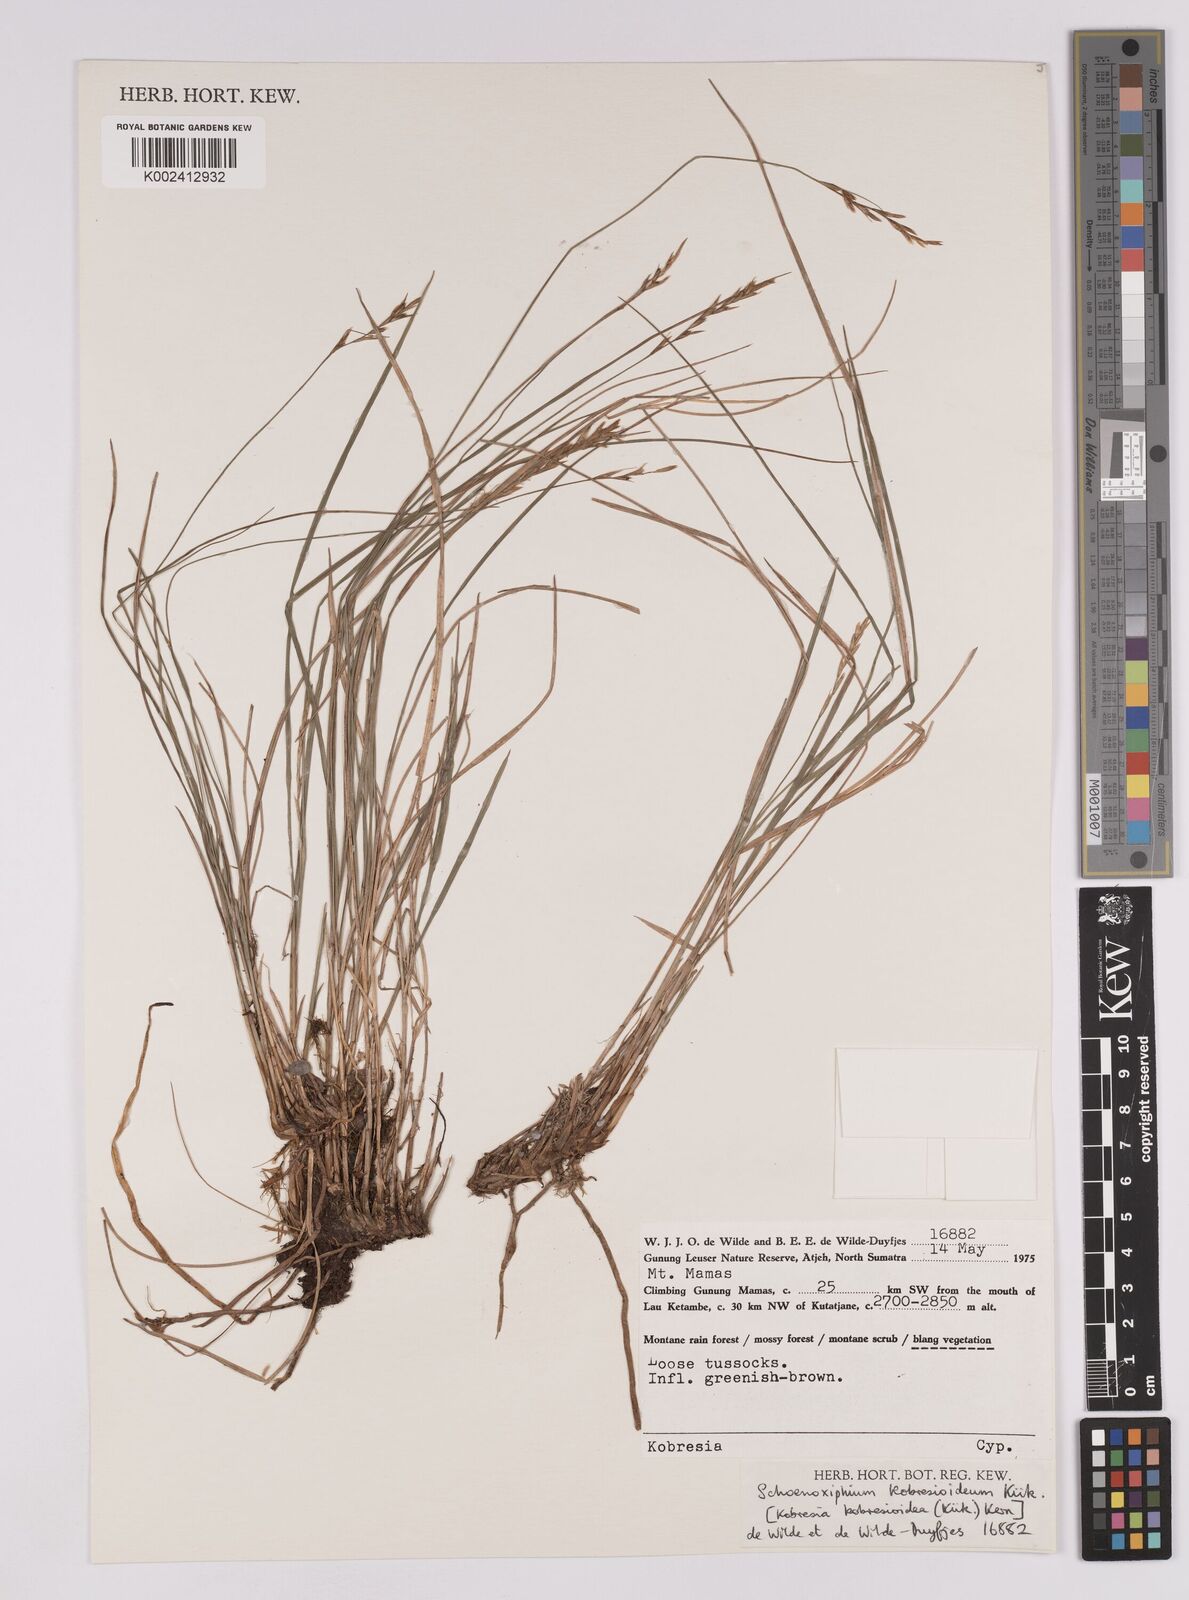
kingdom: Plantae
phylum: Tracheophyta
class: Liliopsida
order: Poales
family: Cyperaceae
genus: Carex
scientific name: Carex kobresioidea
